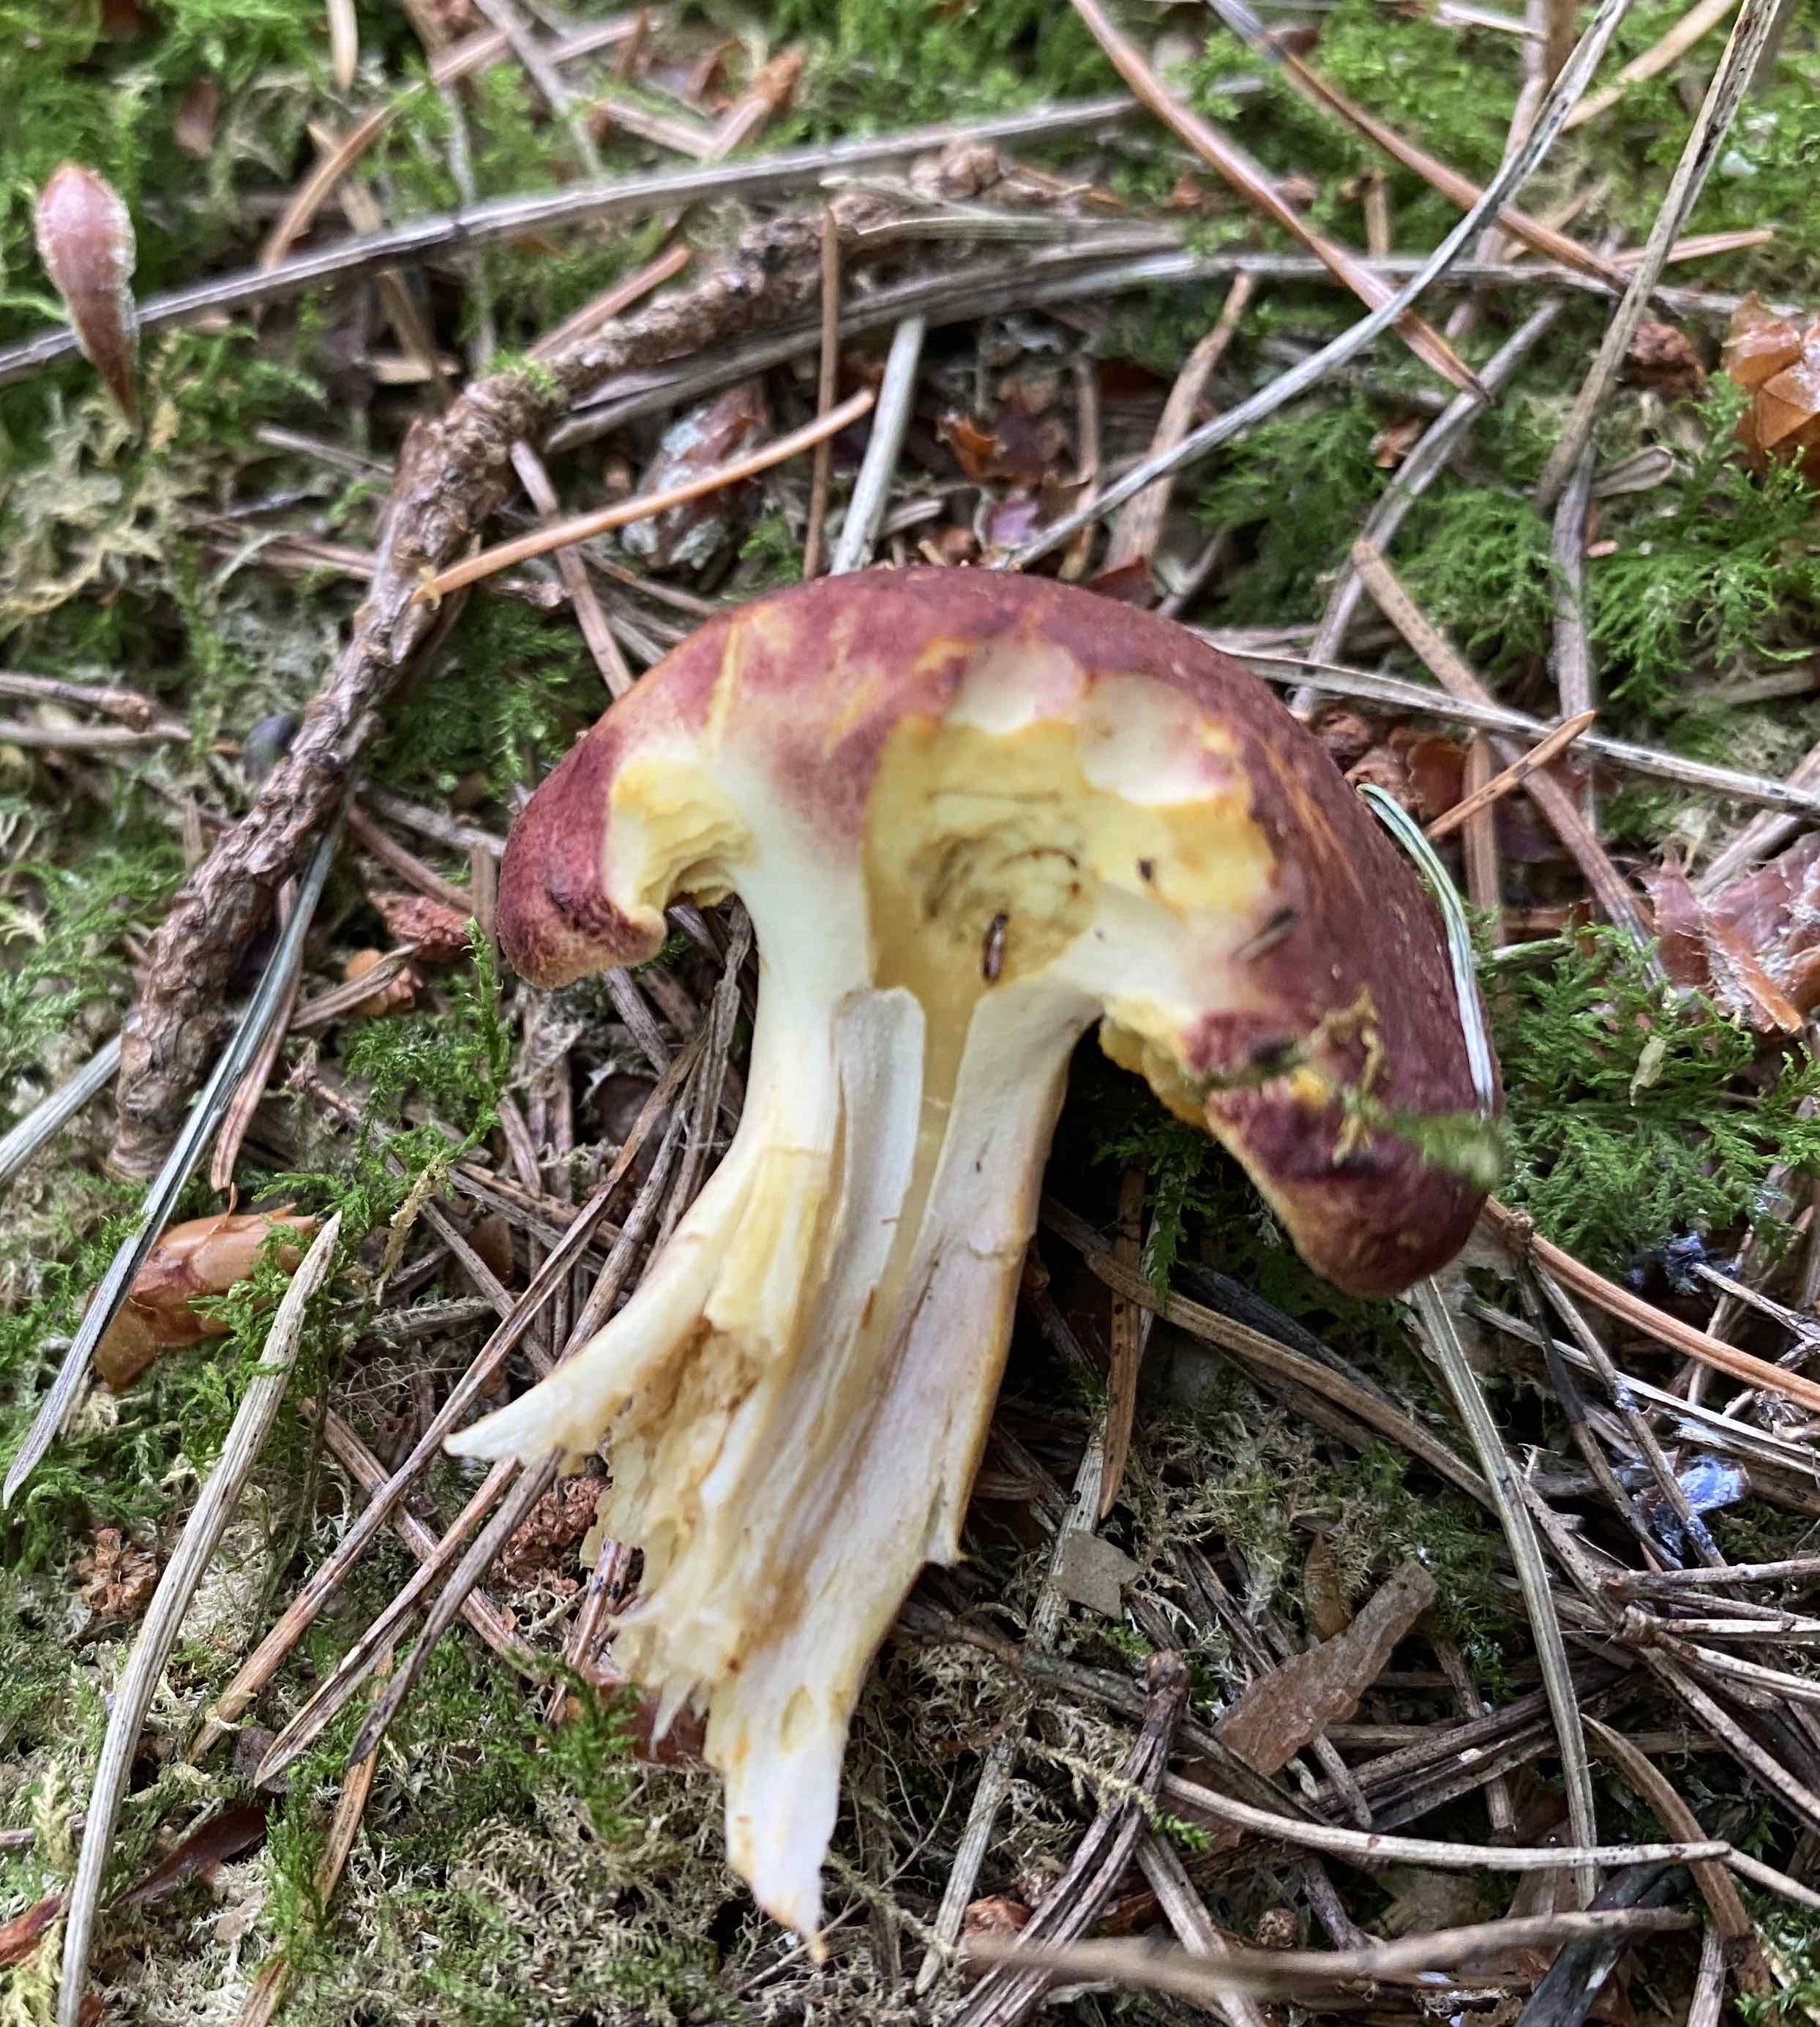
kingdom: Fungi
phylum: Basidiomycota
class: Agaricomycetes
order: Agaricales
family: Tricholomataceae
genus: Tricholomopsis
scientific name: Tricholomopsis rutilans
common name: purpur-væbnerhat
